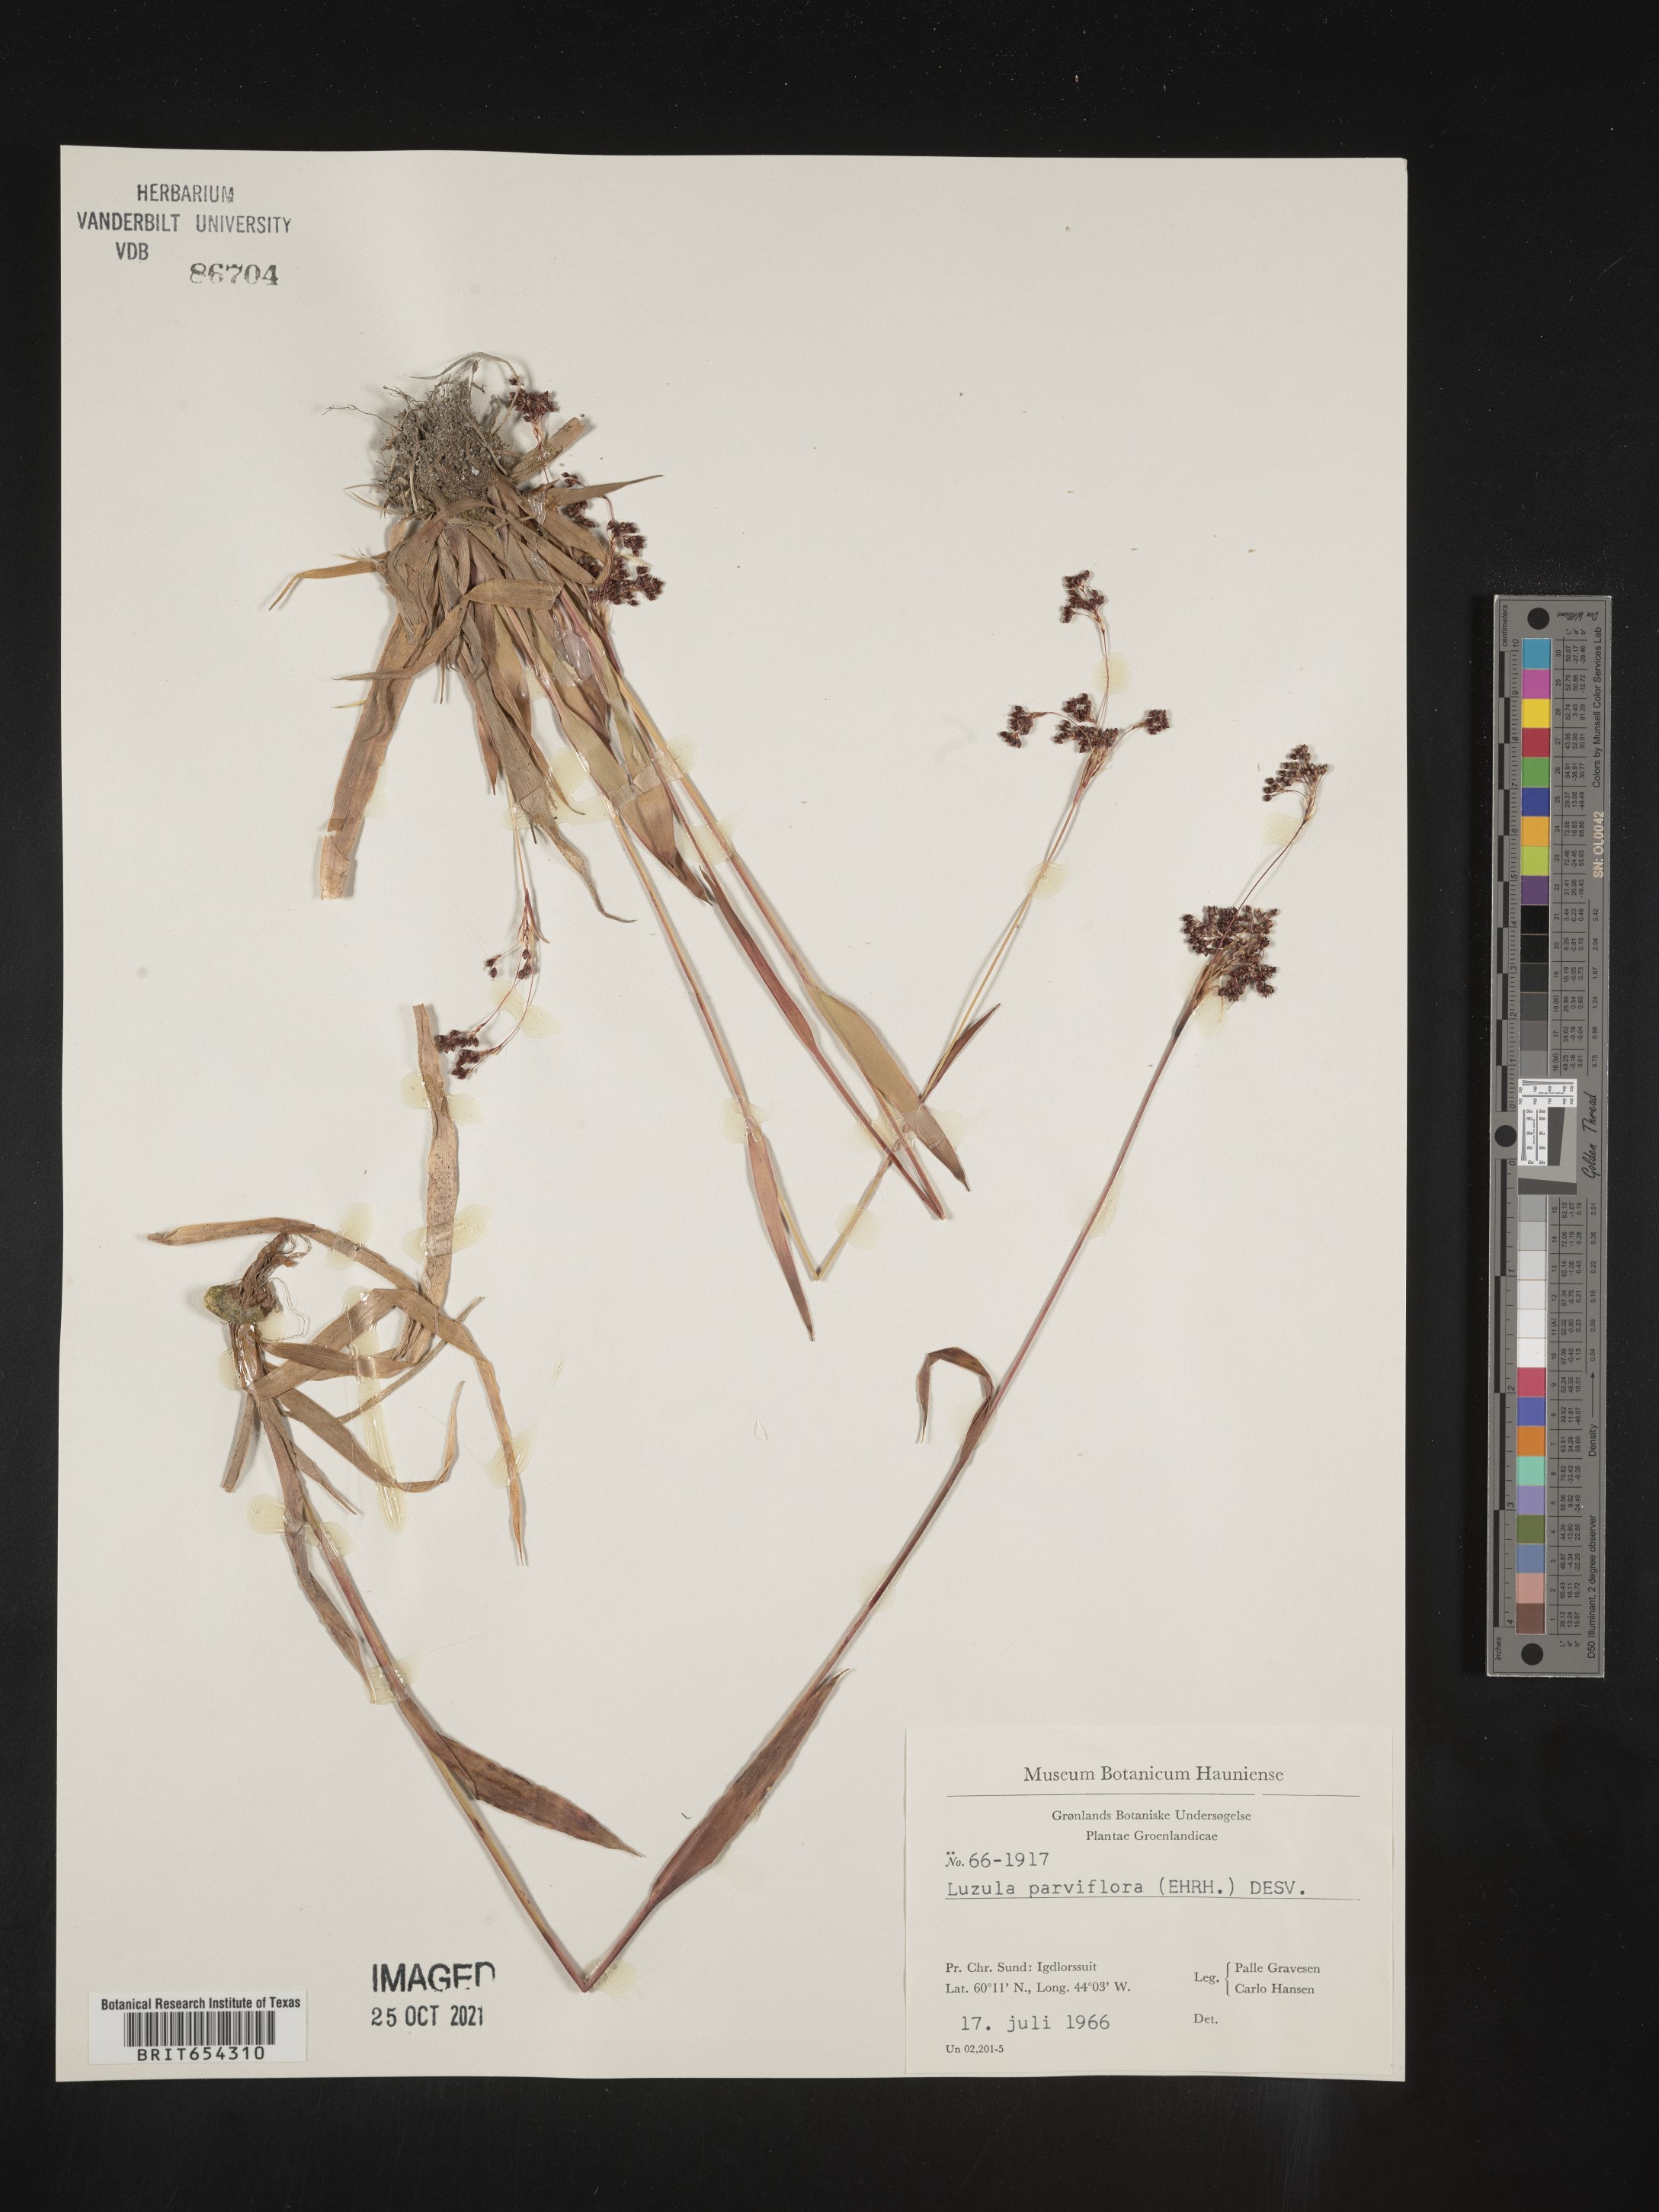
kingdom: Plantae
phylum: Tracheophyta
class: Liliopsida
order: Poales
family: Juncaceae
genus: Luzula
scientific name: Luzula
